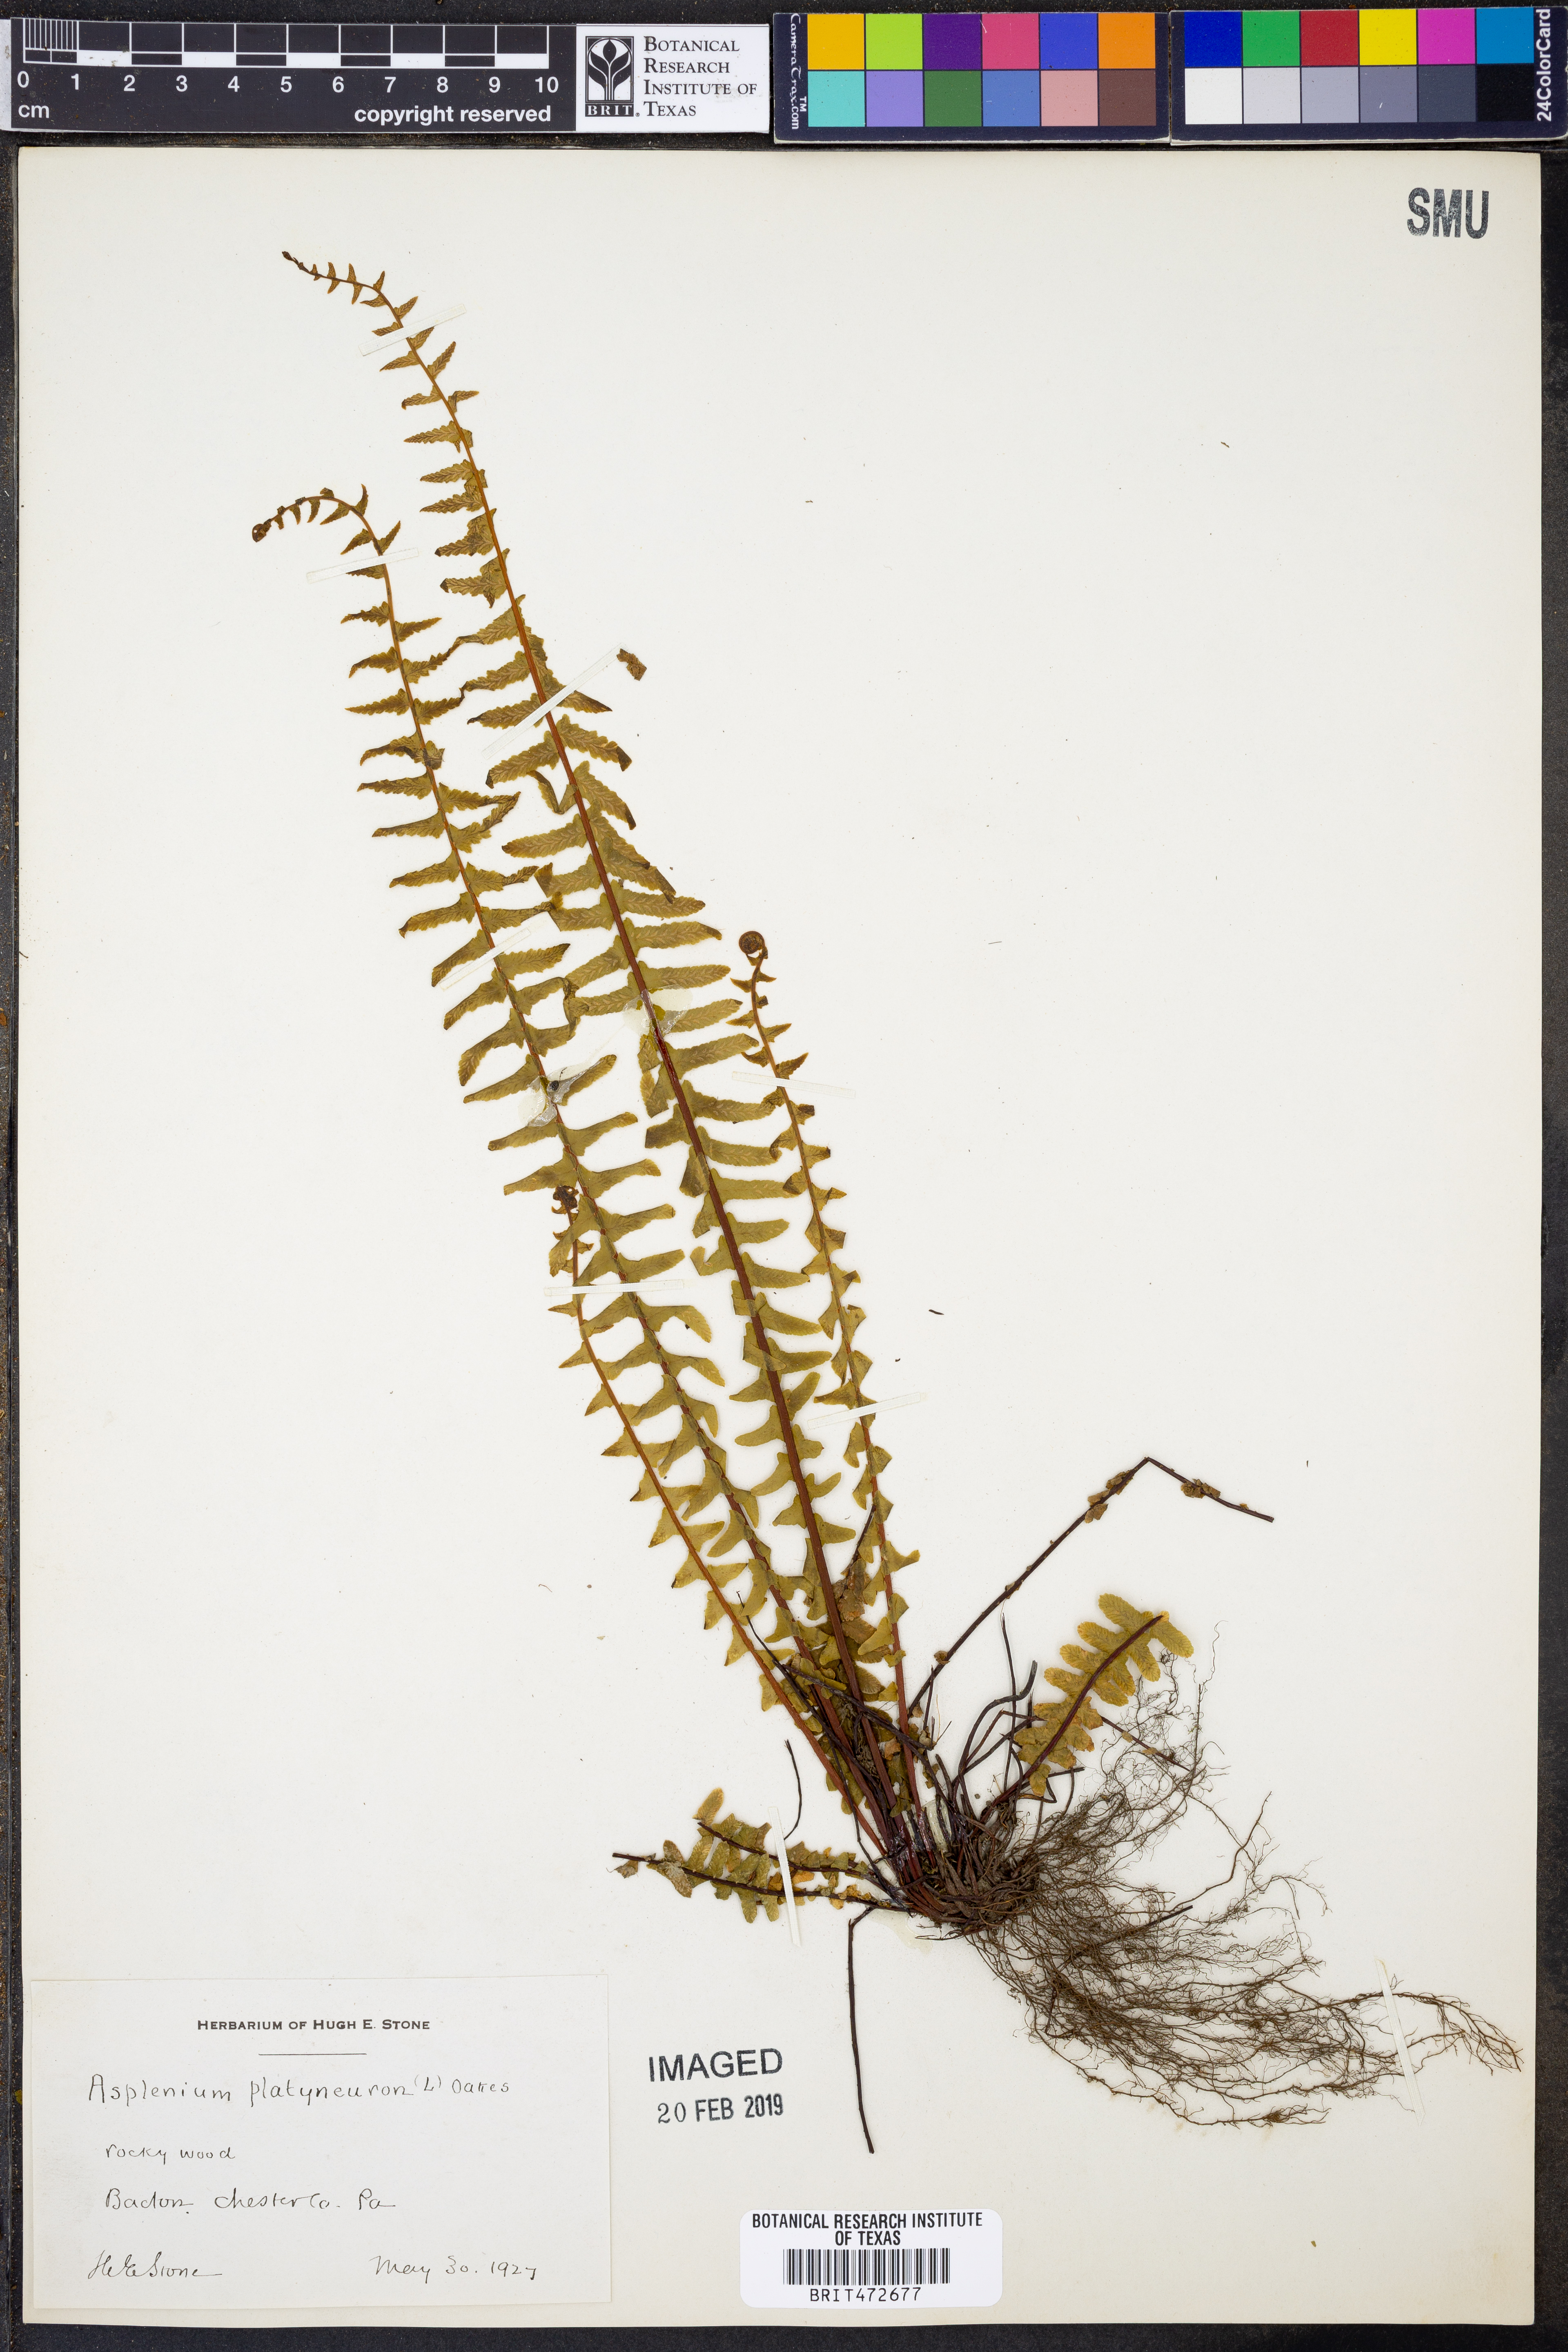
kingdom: Plantae
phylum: Tracheophyta
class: Polypodiopsida
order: Polypodiales
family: Aspleniaceae
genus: Asplenium
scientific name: Asplenium platyneuron
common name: Ebony spleenwort
